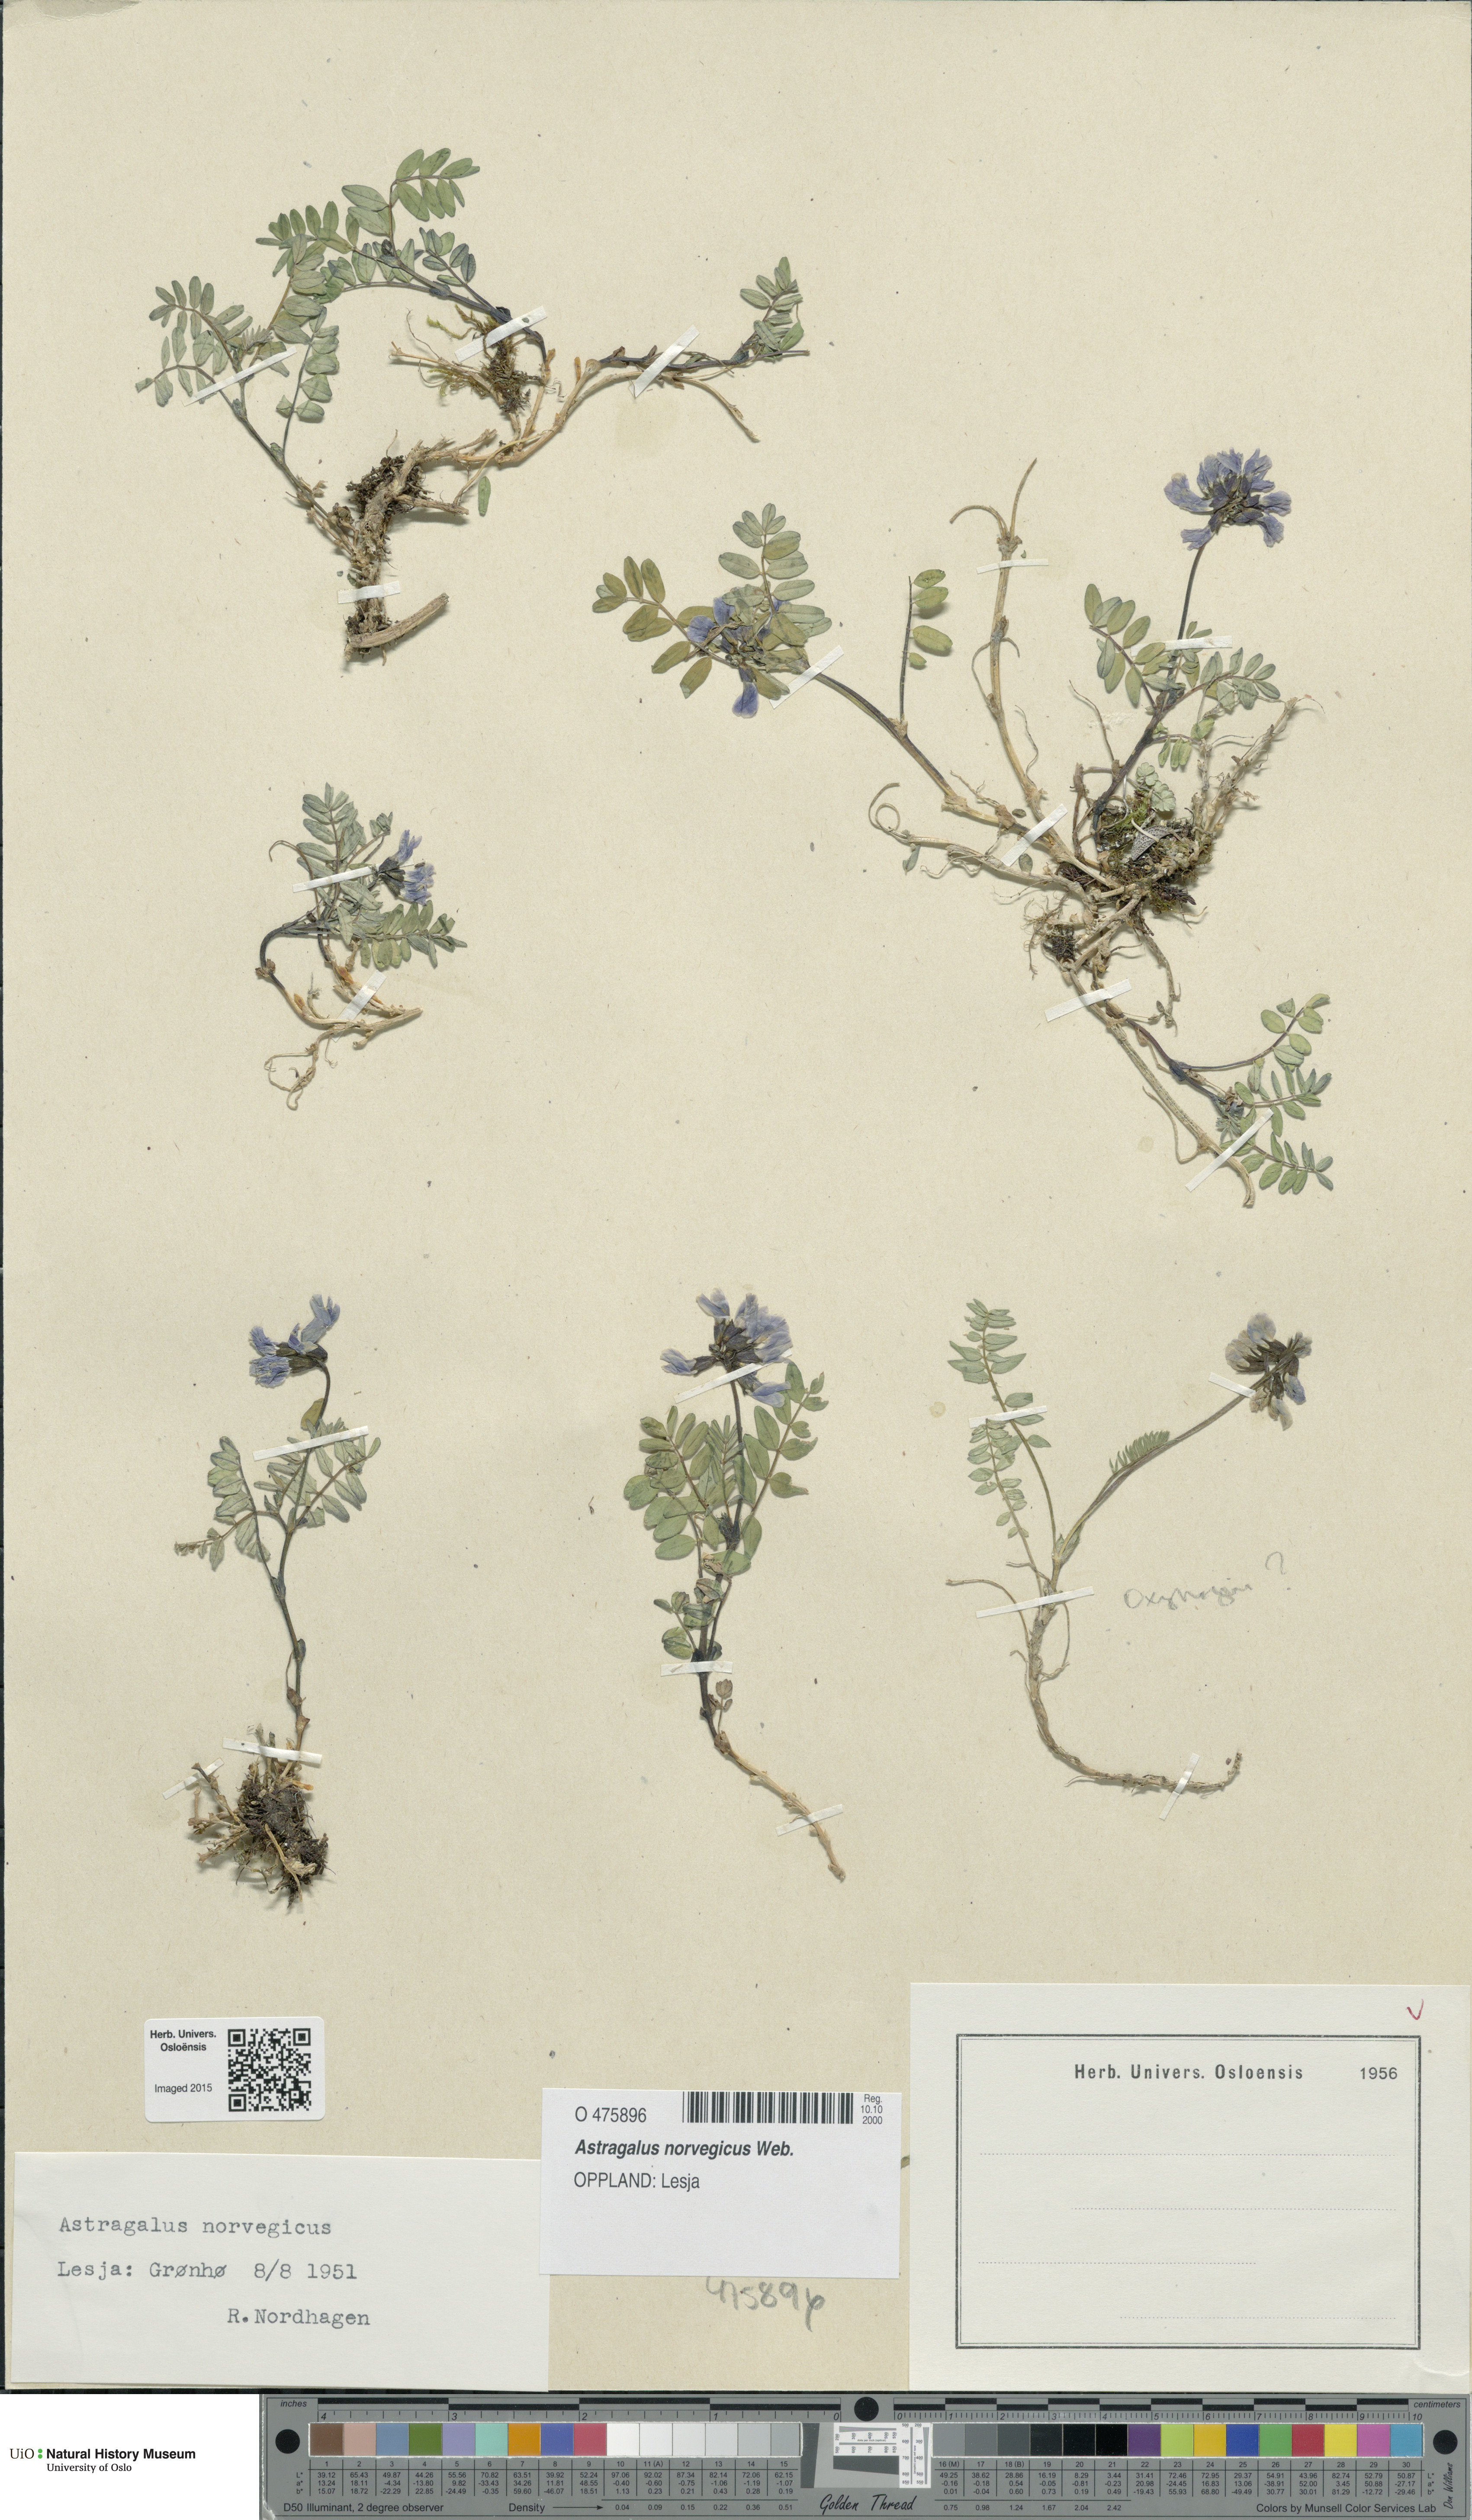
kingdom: Plantae
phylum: Tracheophyta
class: Magnoliopsida
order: Fabales
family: Fabaceae
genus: Astragalus
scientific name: Astragalus norvegicus
